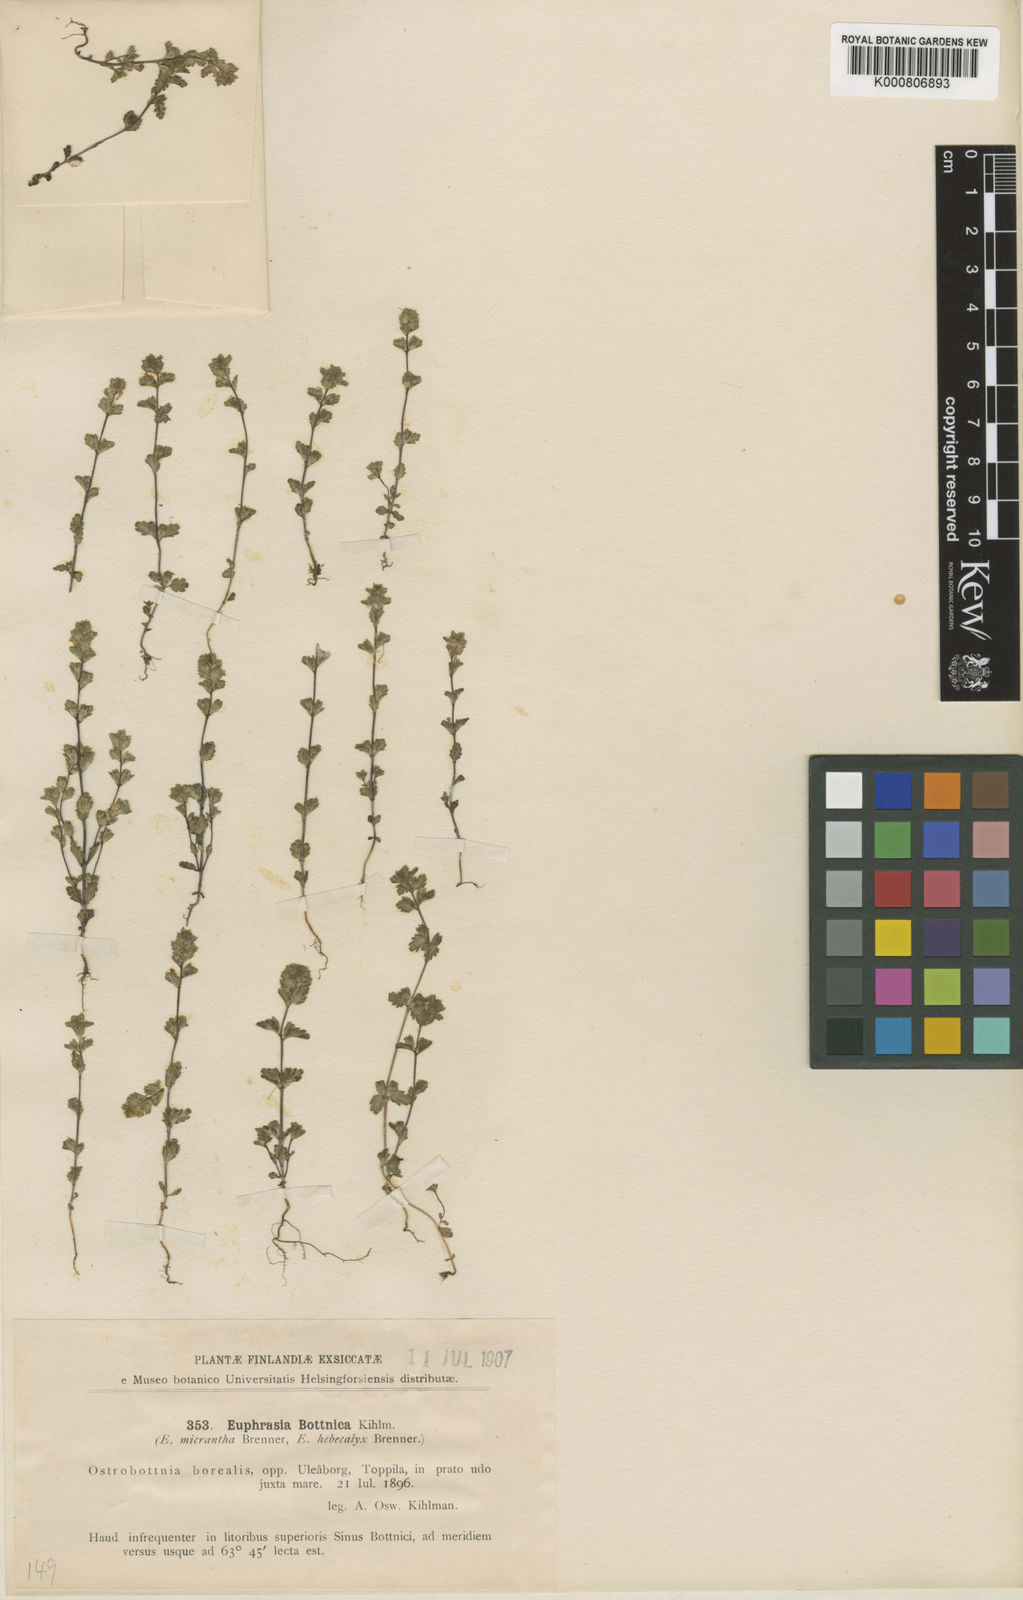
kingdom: Plantae
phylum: Tracheophyta
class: Magnoliopsida
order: Lamiales
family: Orobanchaceae
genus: Euphrasia
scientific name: Euphrasia bottnica
